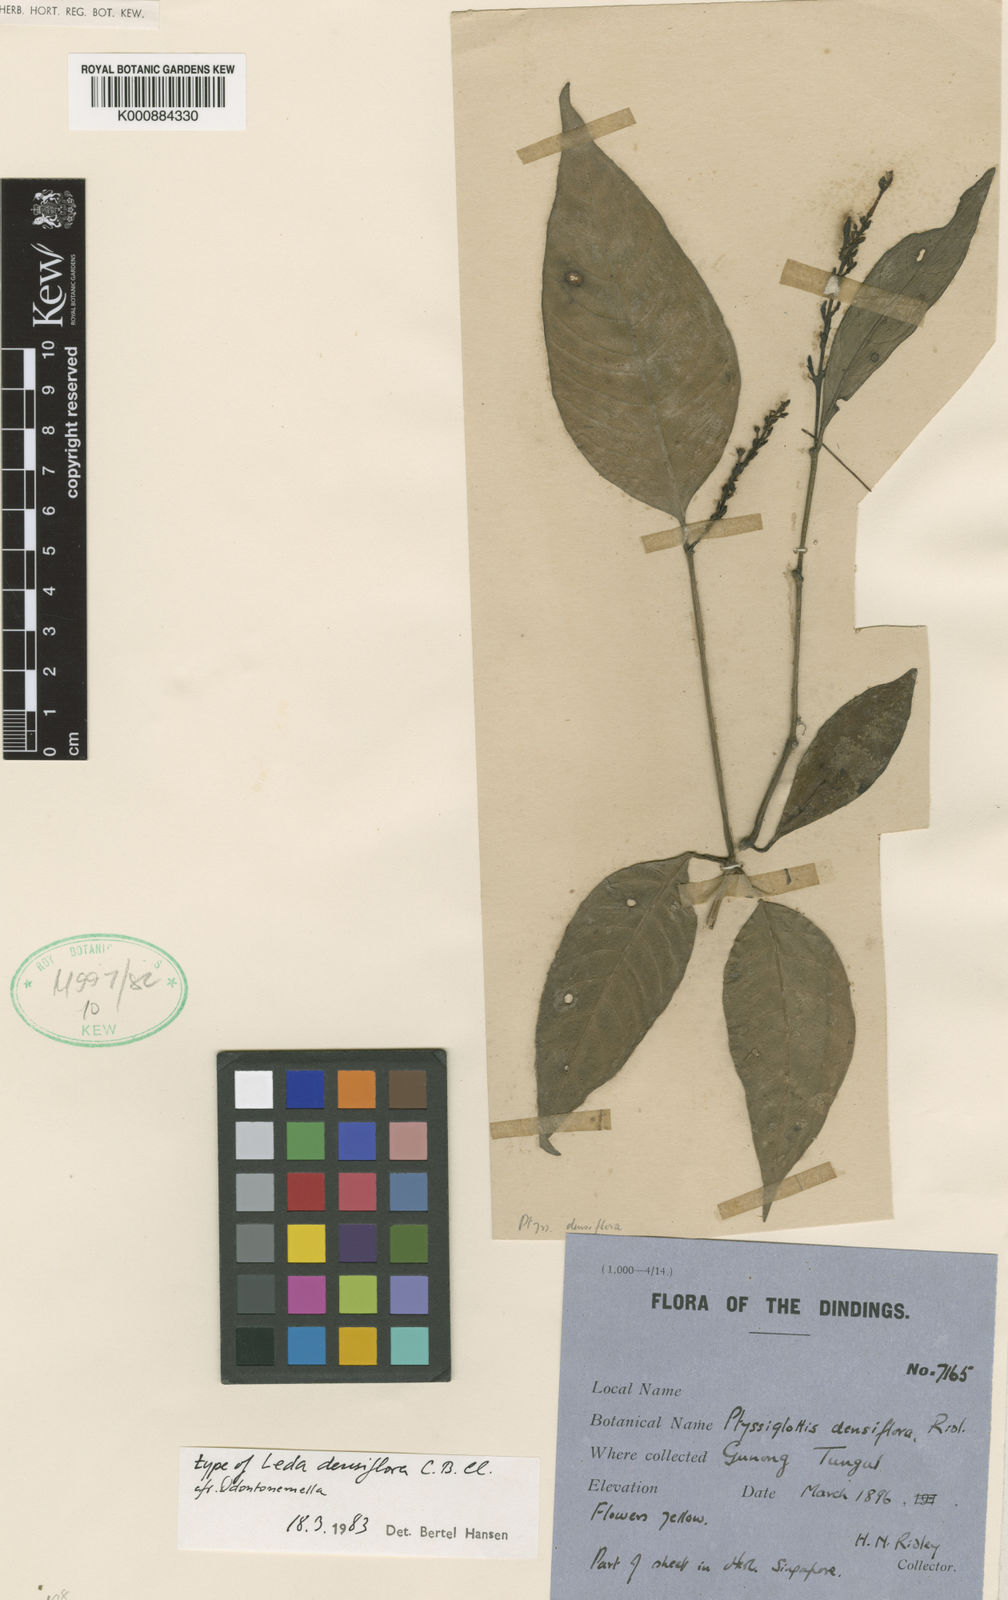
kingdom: Plantae
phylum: Tracheophyta
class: Magnoliopsida
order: Lamiales
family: Acanthaceae
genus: Ptyssiglottis
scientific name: Ptyssiglottis densiflora
